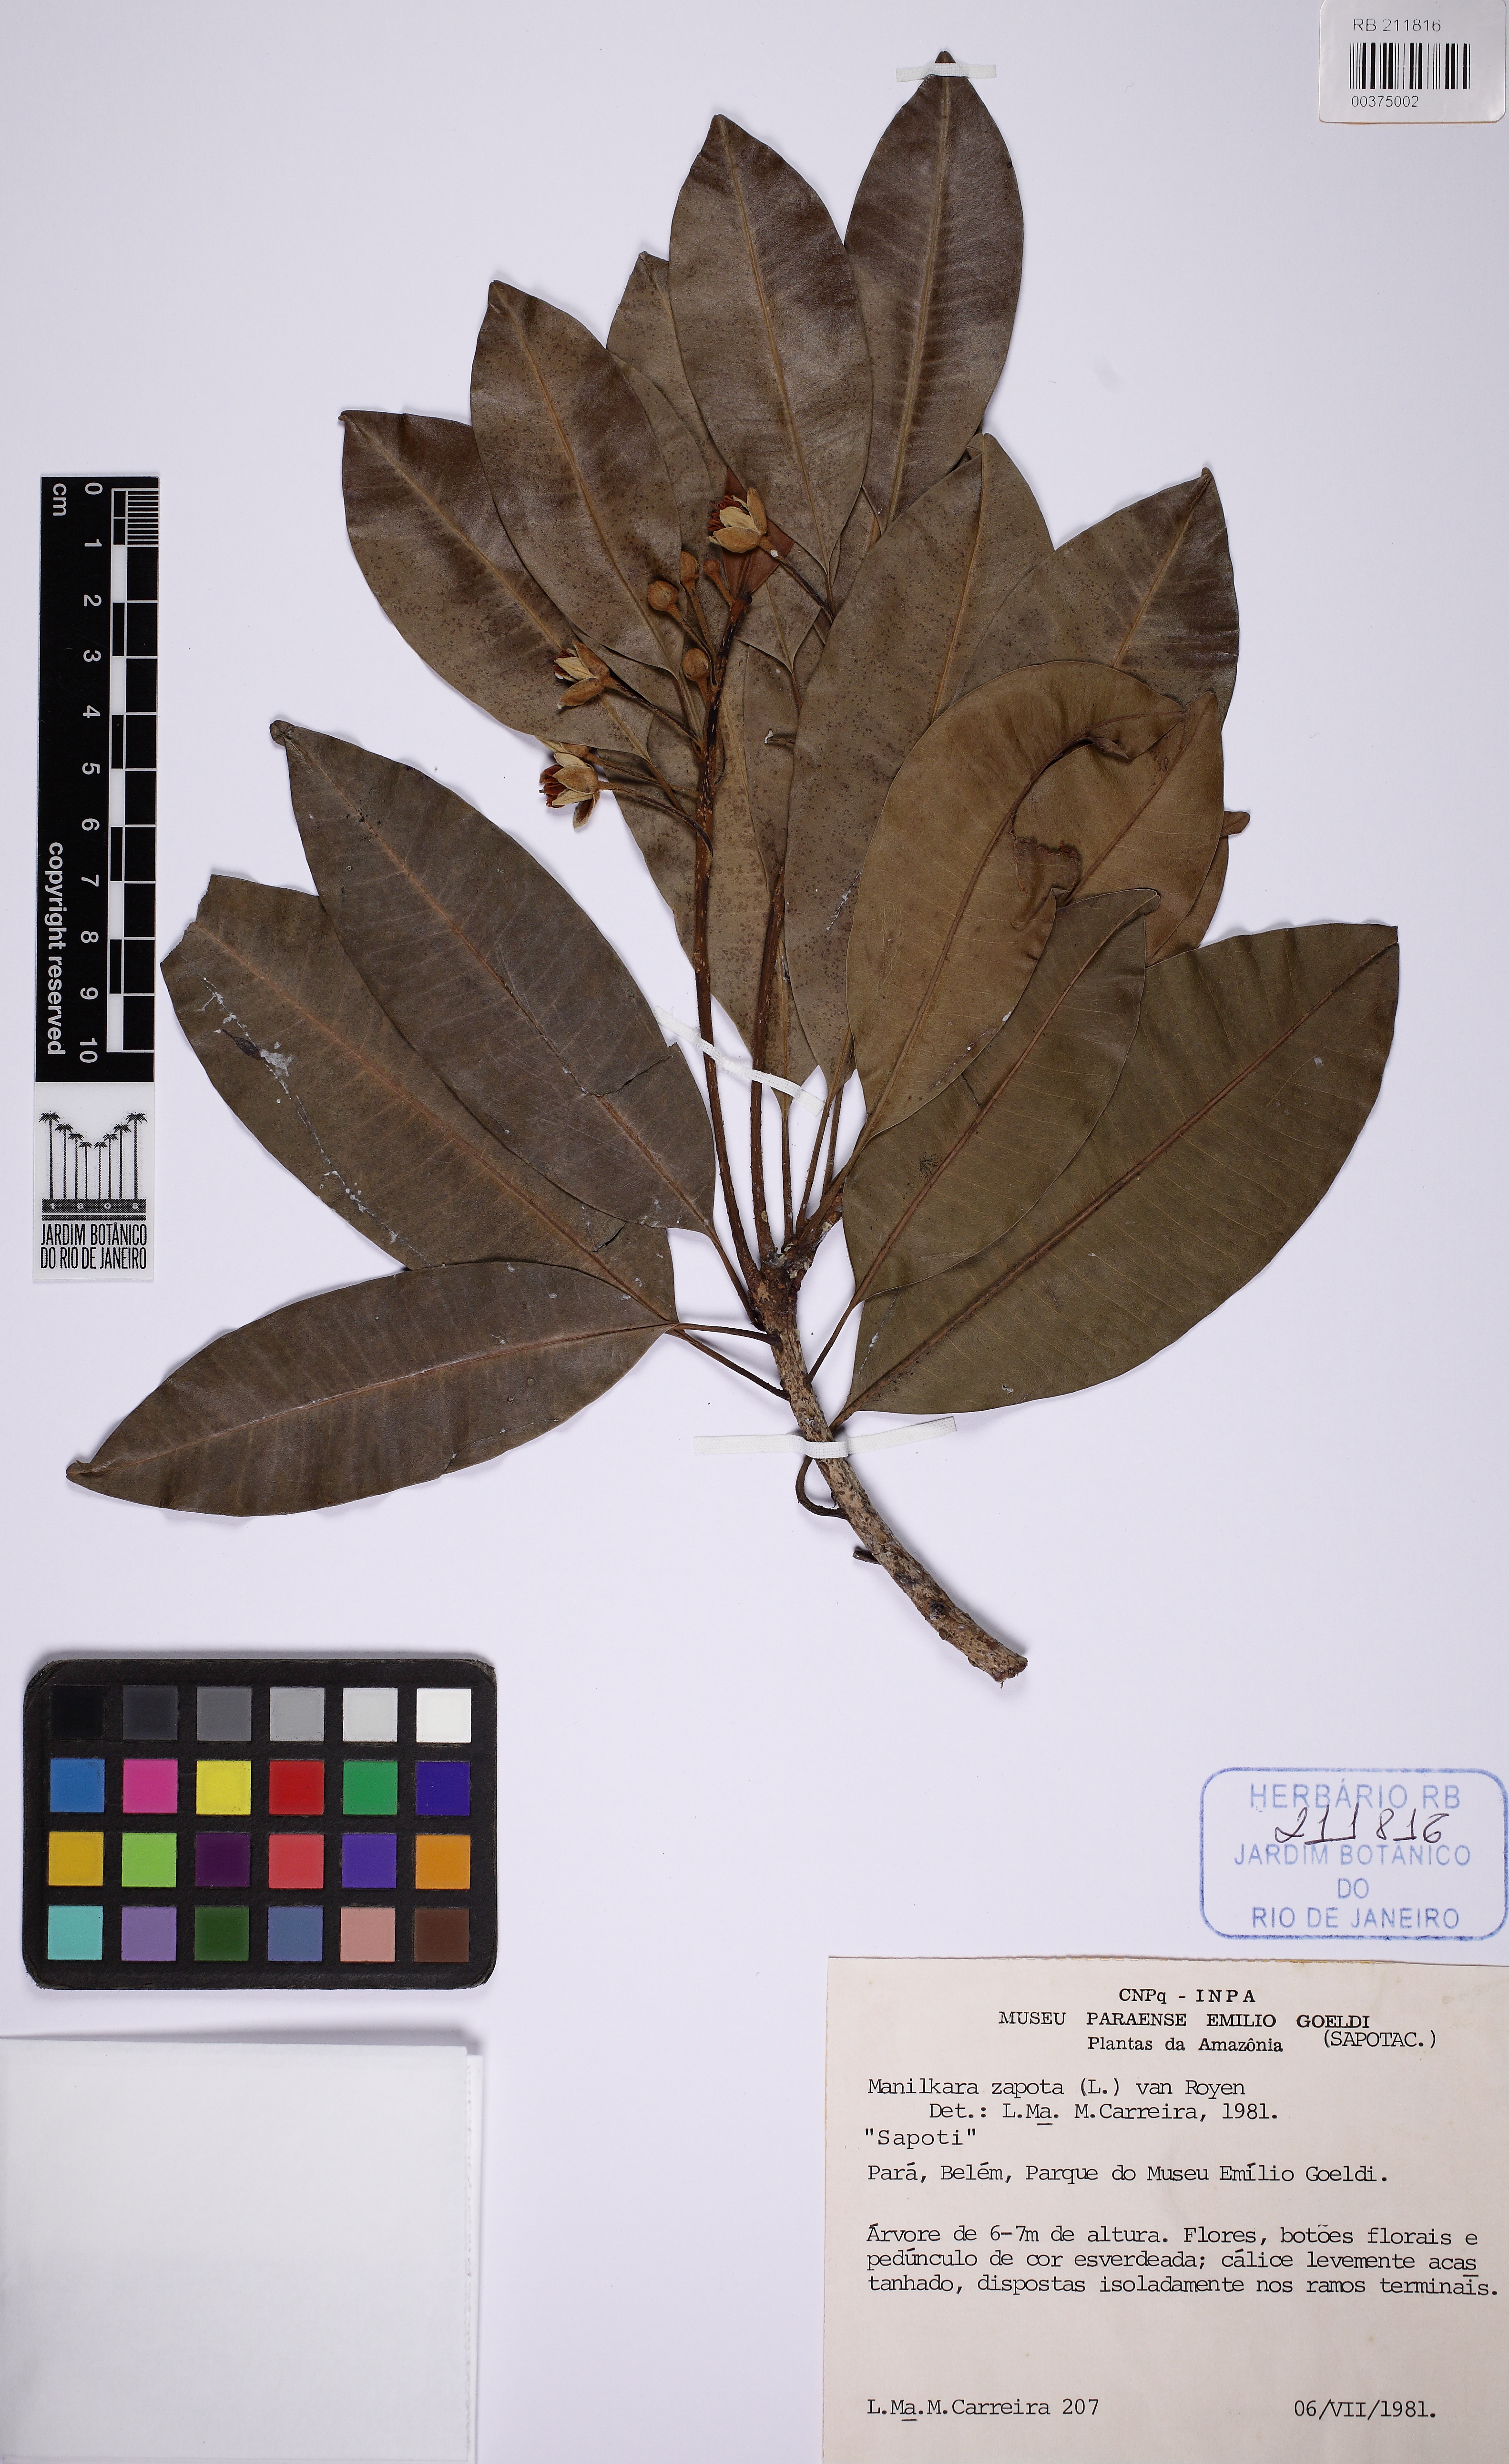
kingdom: Plantae
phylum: Tracheophyta
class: Magnoliopsida
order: Ericales
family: Sapotaceae
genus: Manilkara
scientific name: Manilkara zapota
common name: Sapodilla
